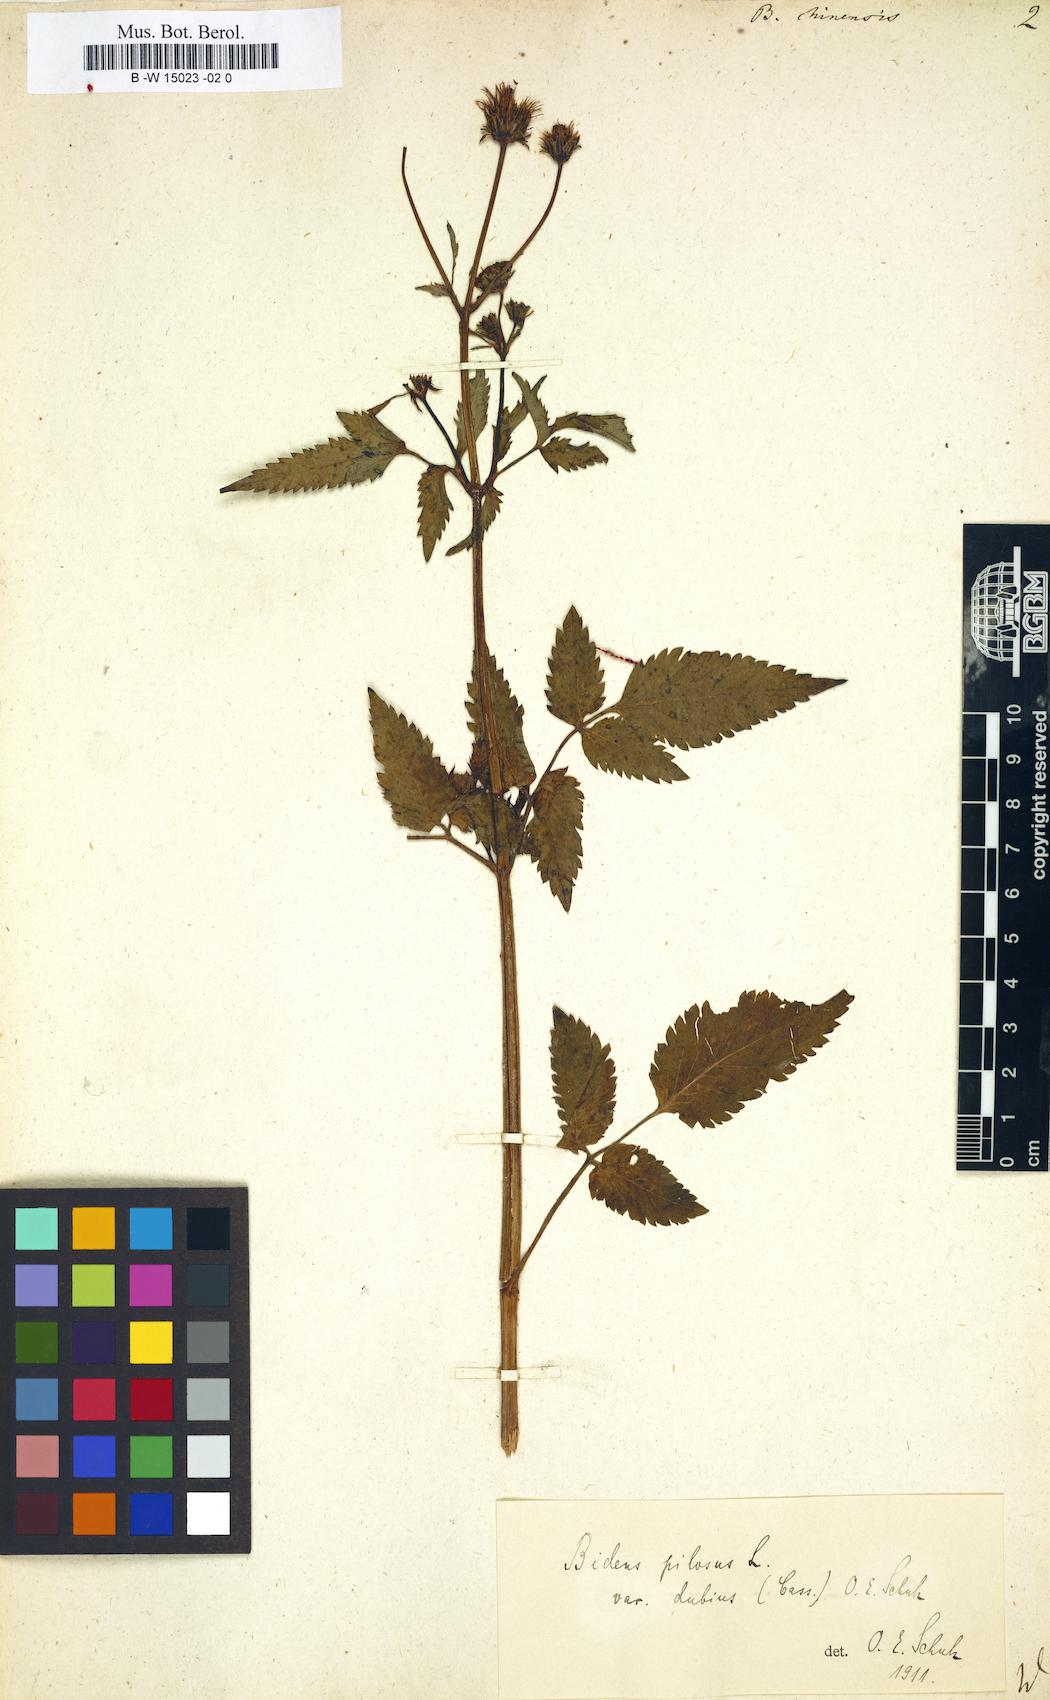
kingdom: Plantae
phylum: Tracheophyta
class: Magnoliopsida
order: Asterales
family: Asteraceae
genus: Bidens
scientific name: Bidens biternata
